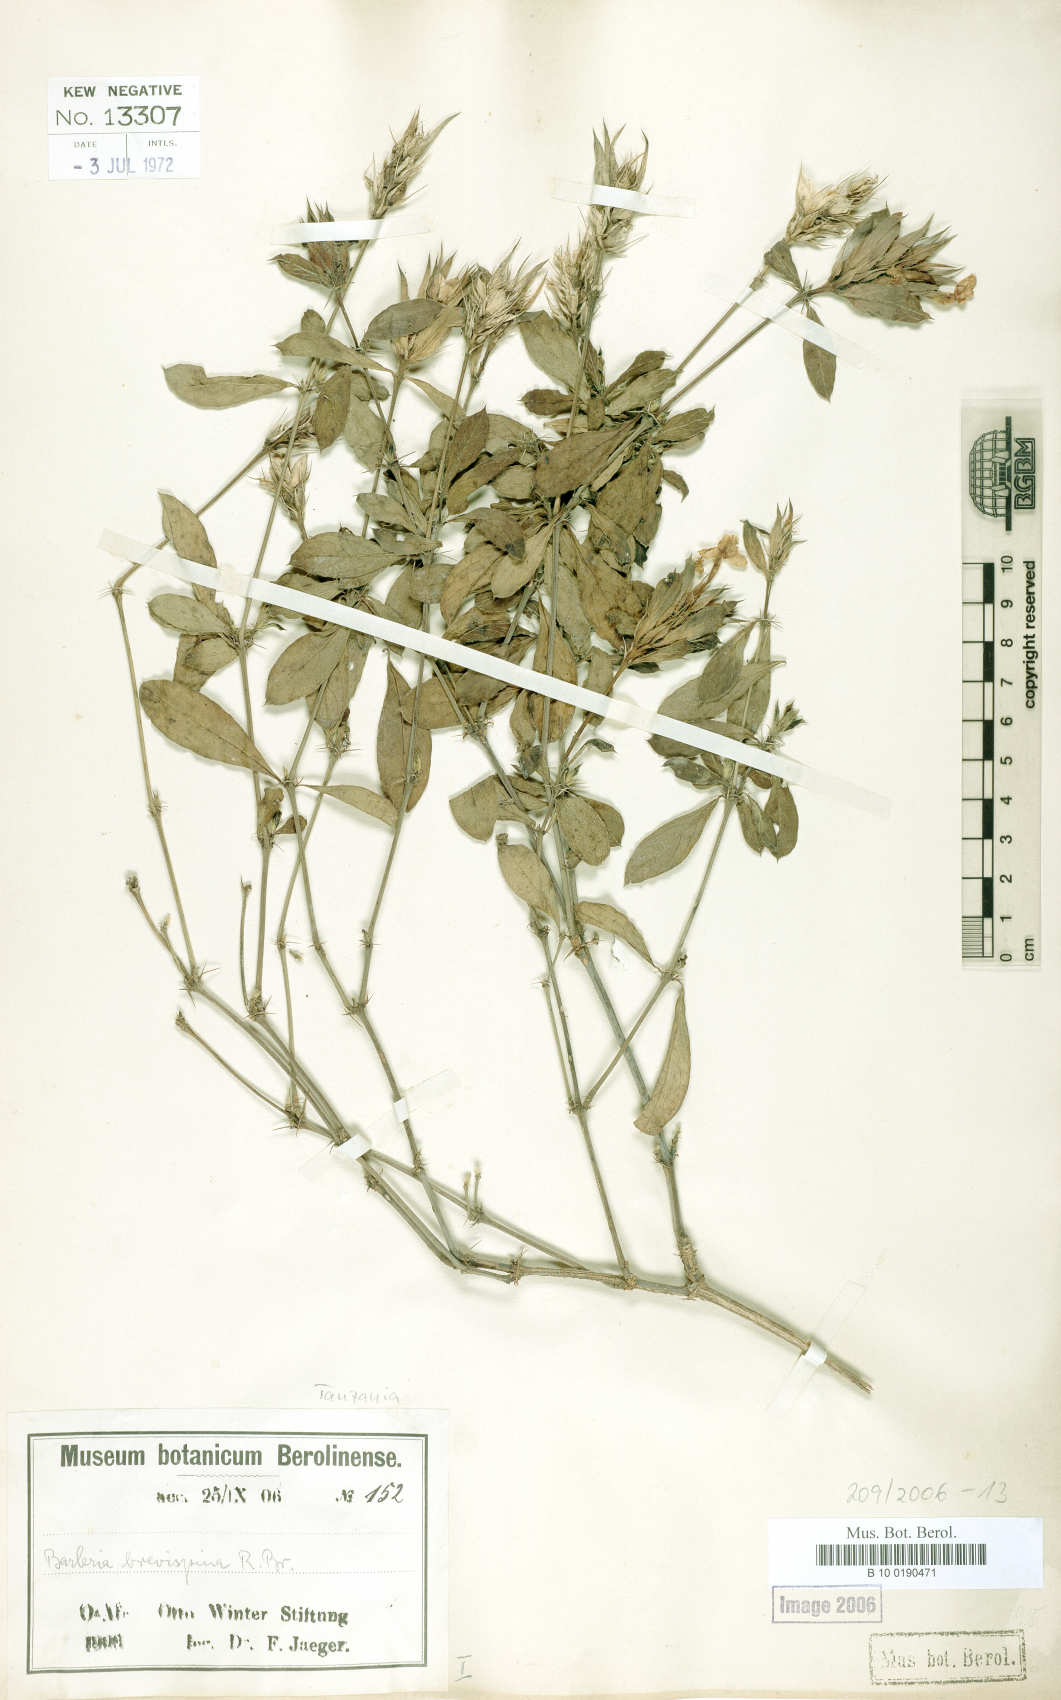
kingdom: Plantae
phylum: Tracheophyta
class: Magnoliopsida
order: Lamiales
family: Acanthaceae
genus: Barleria
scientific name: Barleria quadrispina
